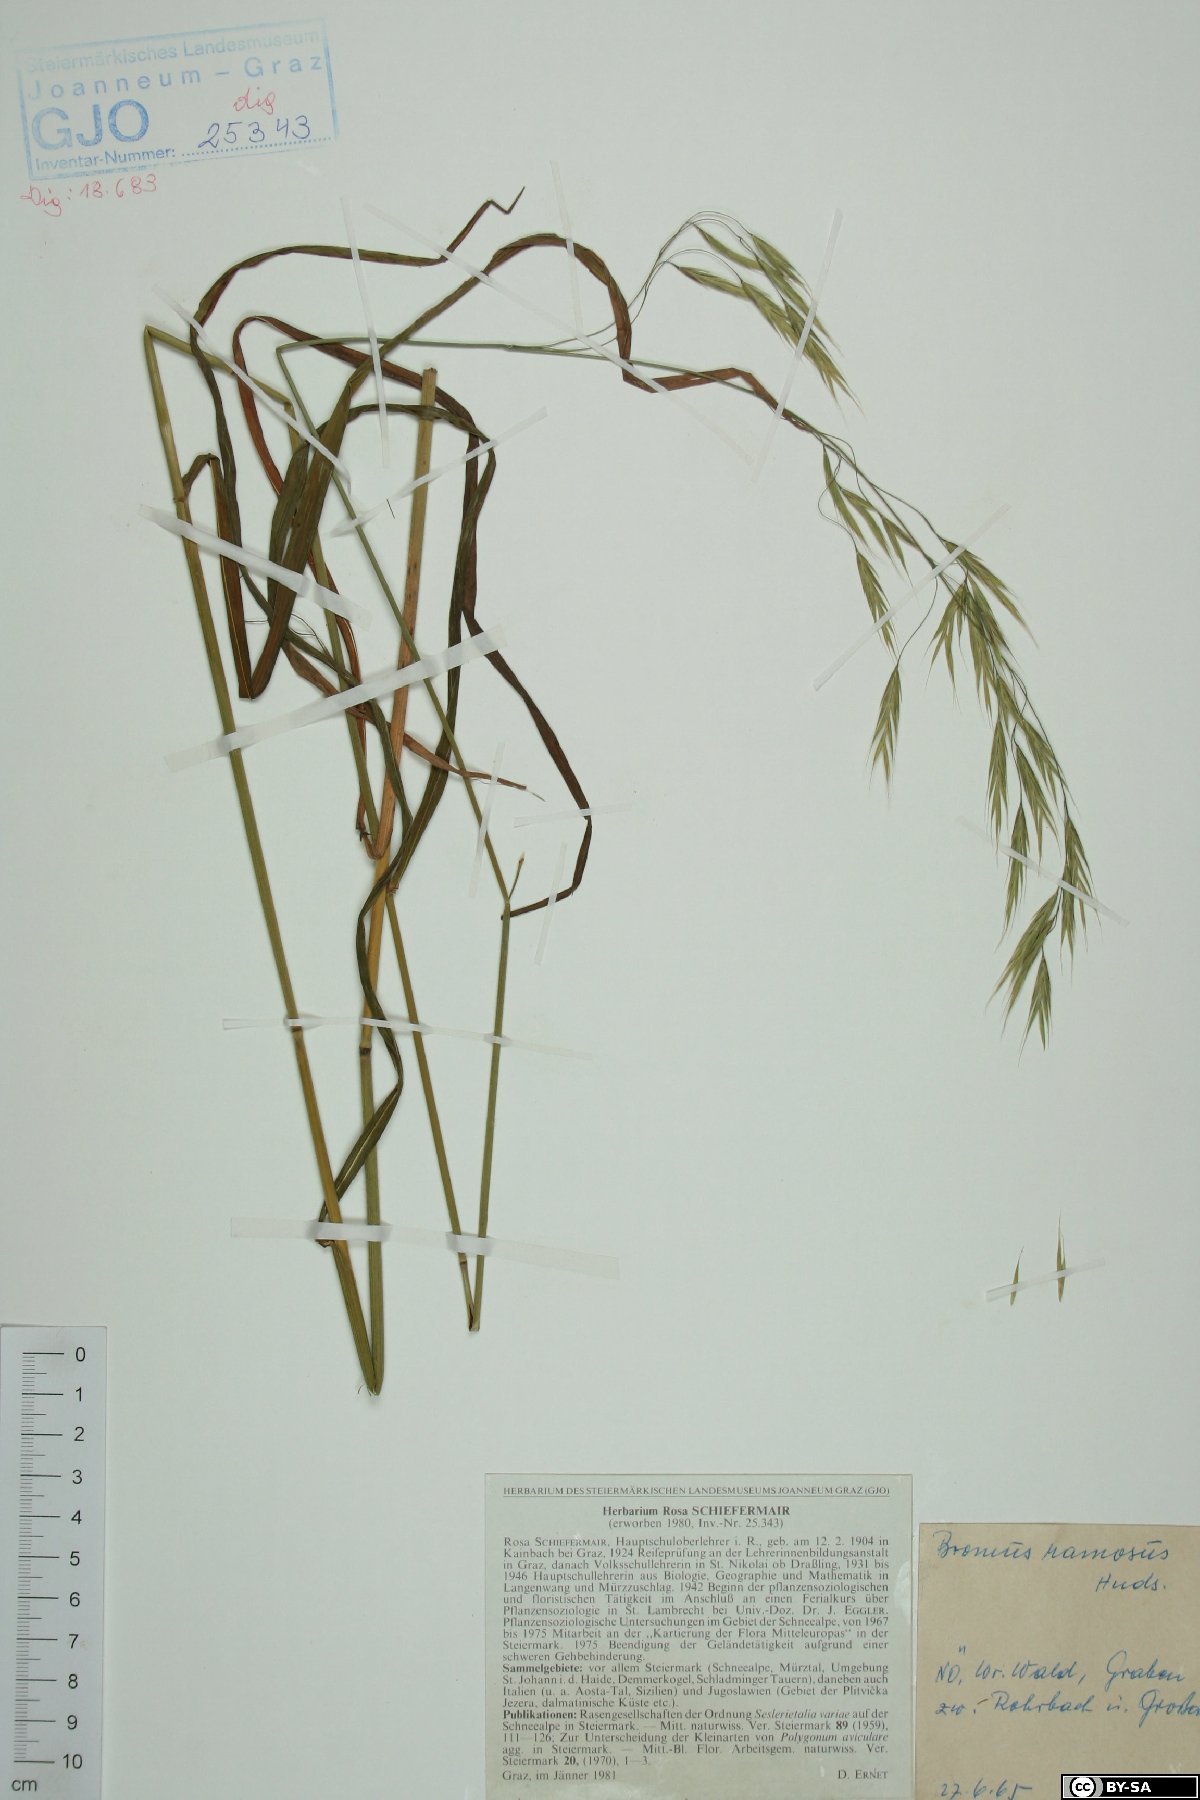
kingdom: Plantae
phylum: Tracheophyta
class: Liliopsida
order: Poales
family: Poaceae
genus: Bromus
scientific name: Bromus ramosus
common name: Hairy brome
